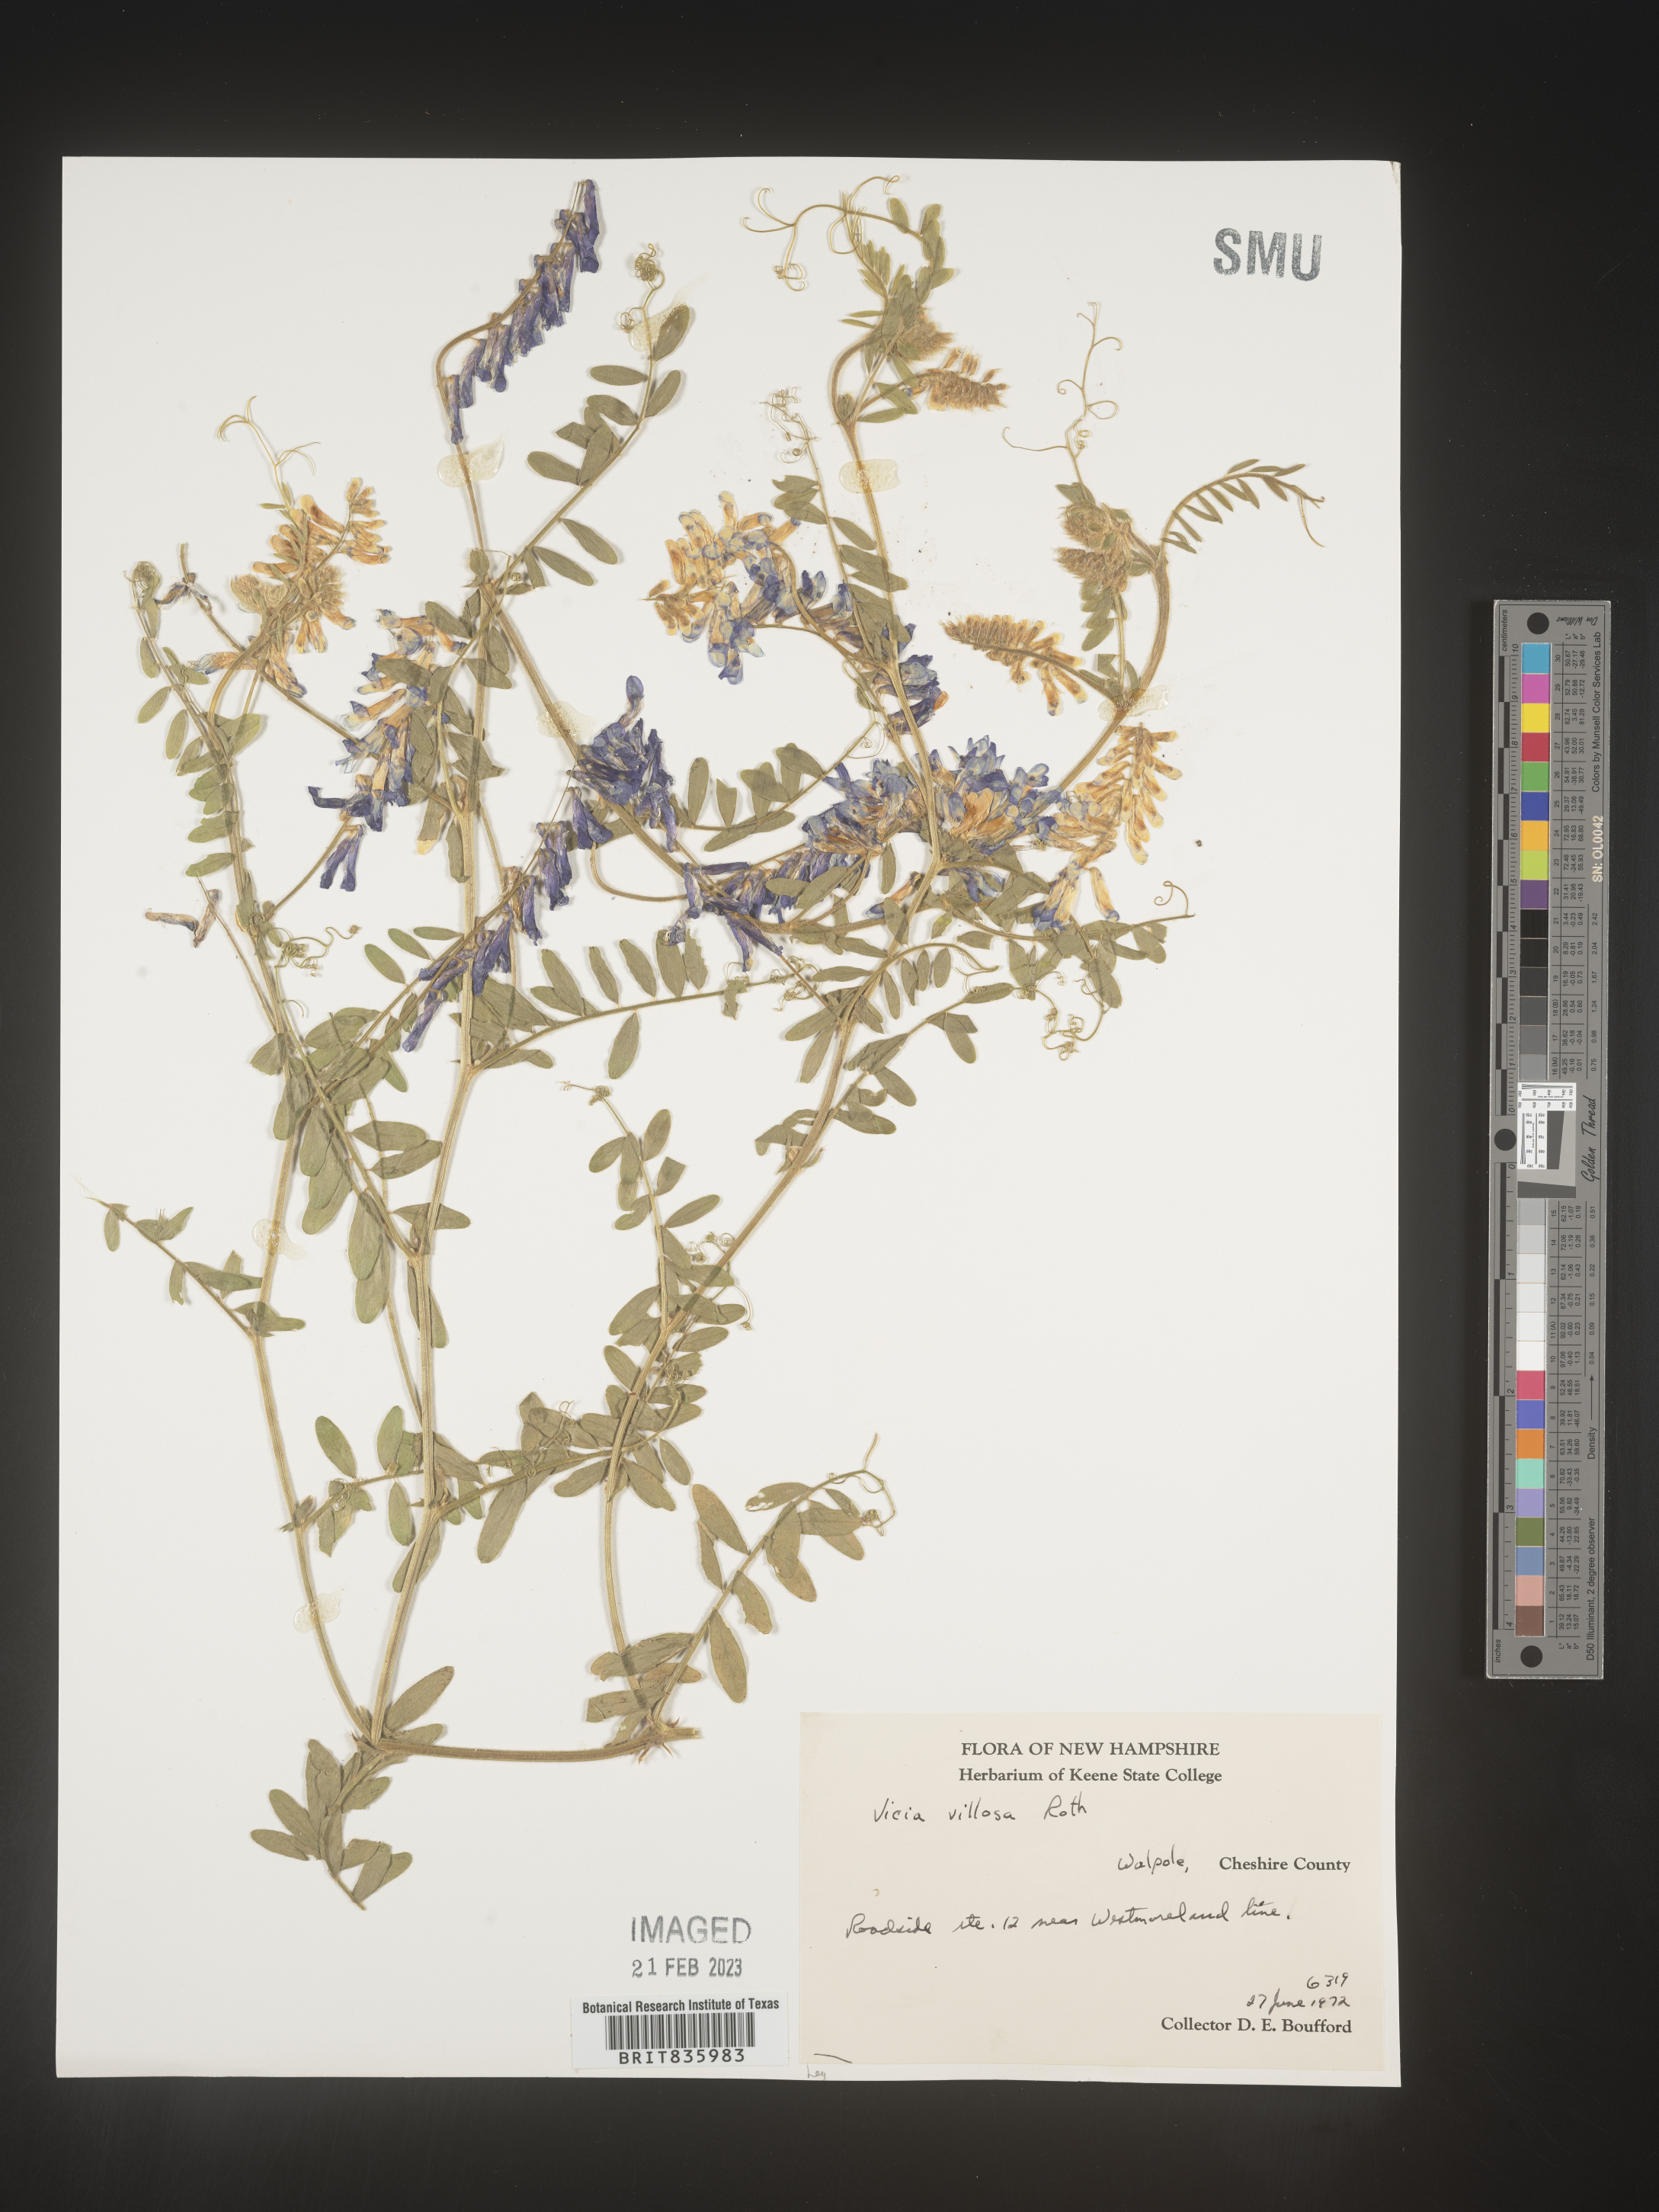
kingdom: Plantae
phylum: Tracheophyta
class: Magnoliopsida
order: Fabales
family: Fabaceae
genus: Vicia
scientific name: Vicia villosa
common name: Fodder vetch
